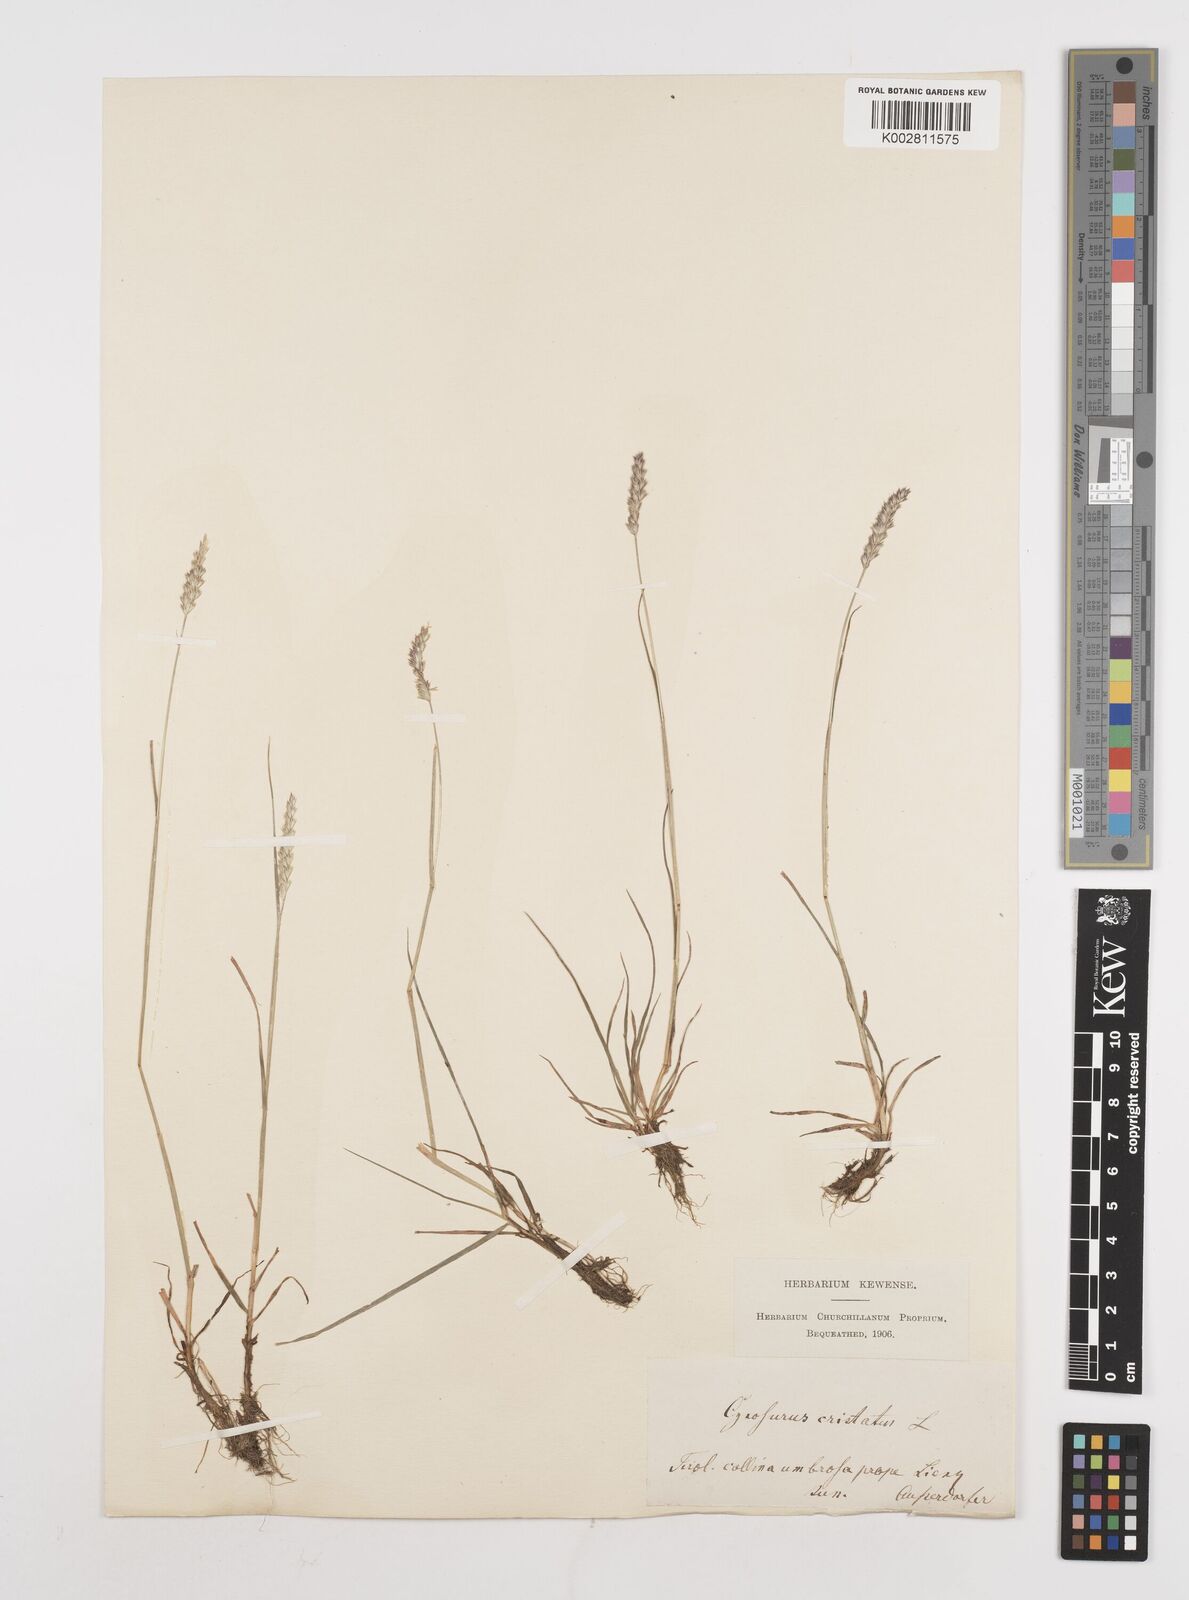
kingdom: Plantae
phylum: Tracheophyta
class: Liliopsida
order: Poales
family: Poaceae
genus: Cynosurus
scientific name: Cynosurus cristatus
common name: Crested dog's-tail
